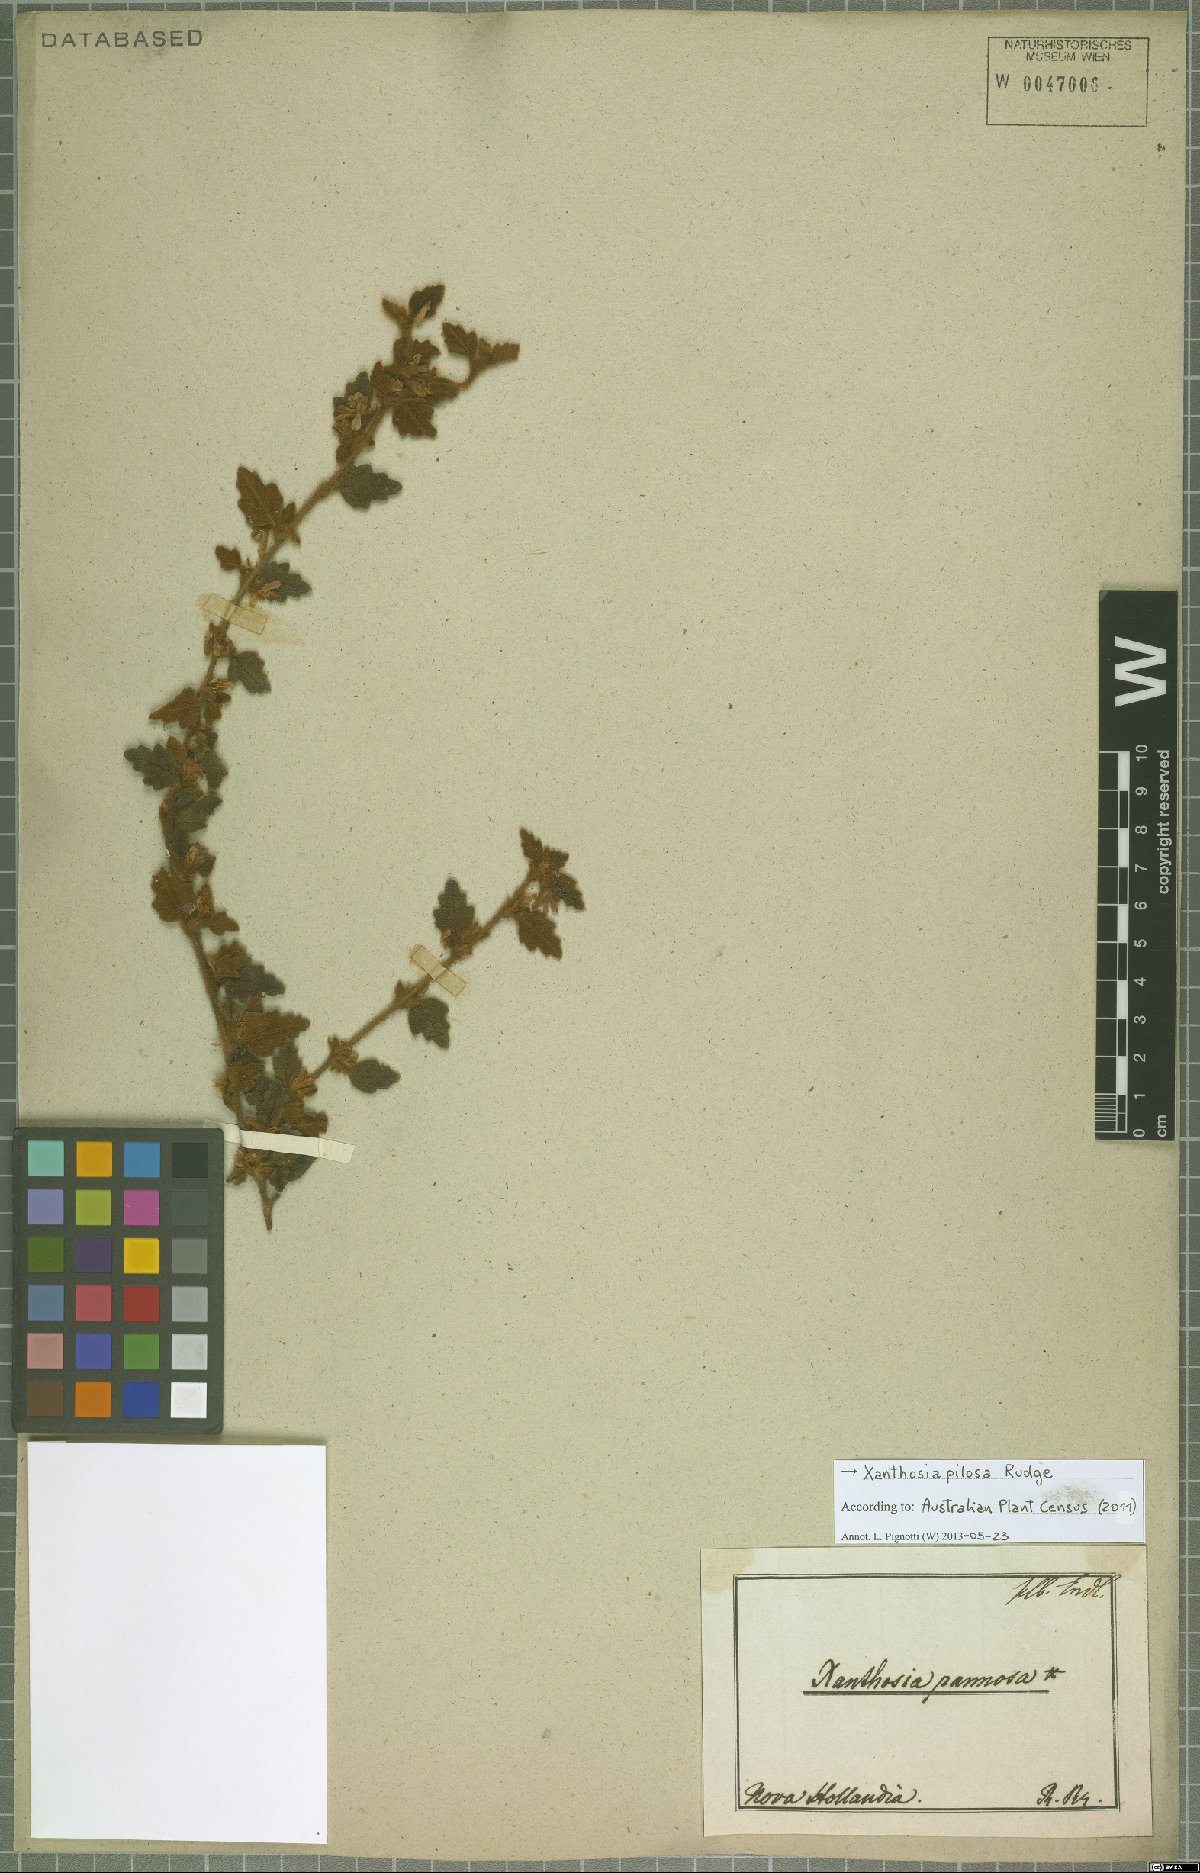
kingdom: Plantae
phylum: Tracheophyta
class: Magnoliopsida
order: Apiales
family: Apiaceae
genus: Xanthosia
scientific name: Xanthosia pilosa
